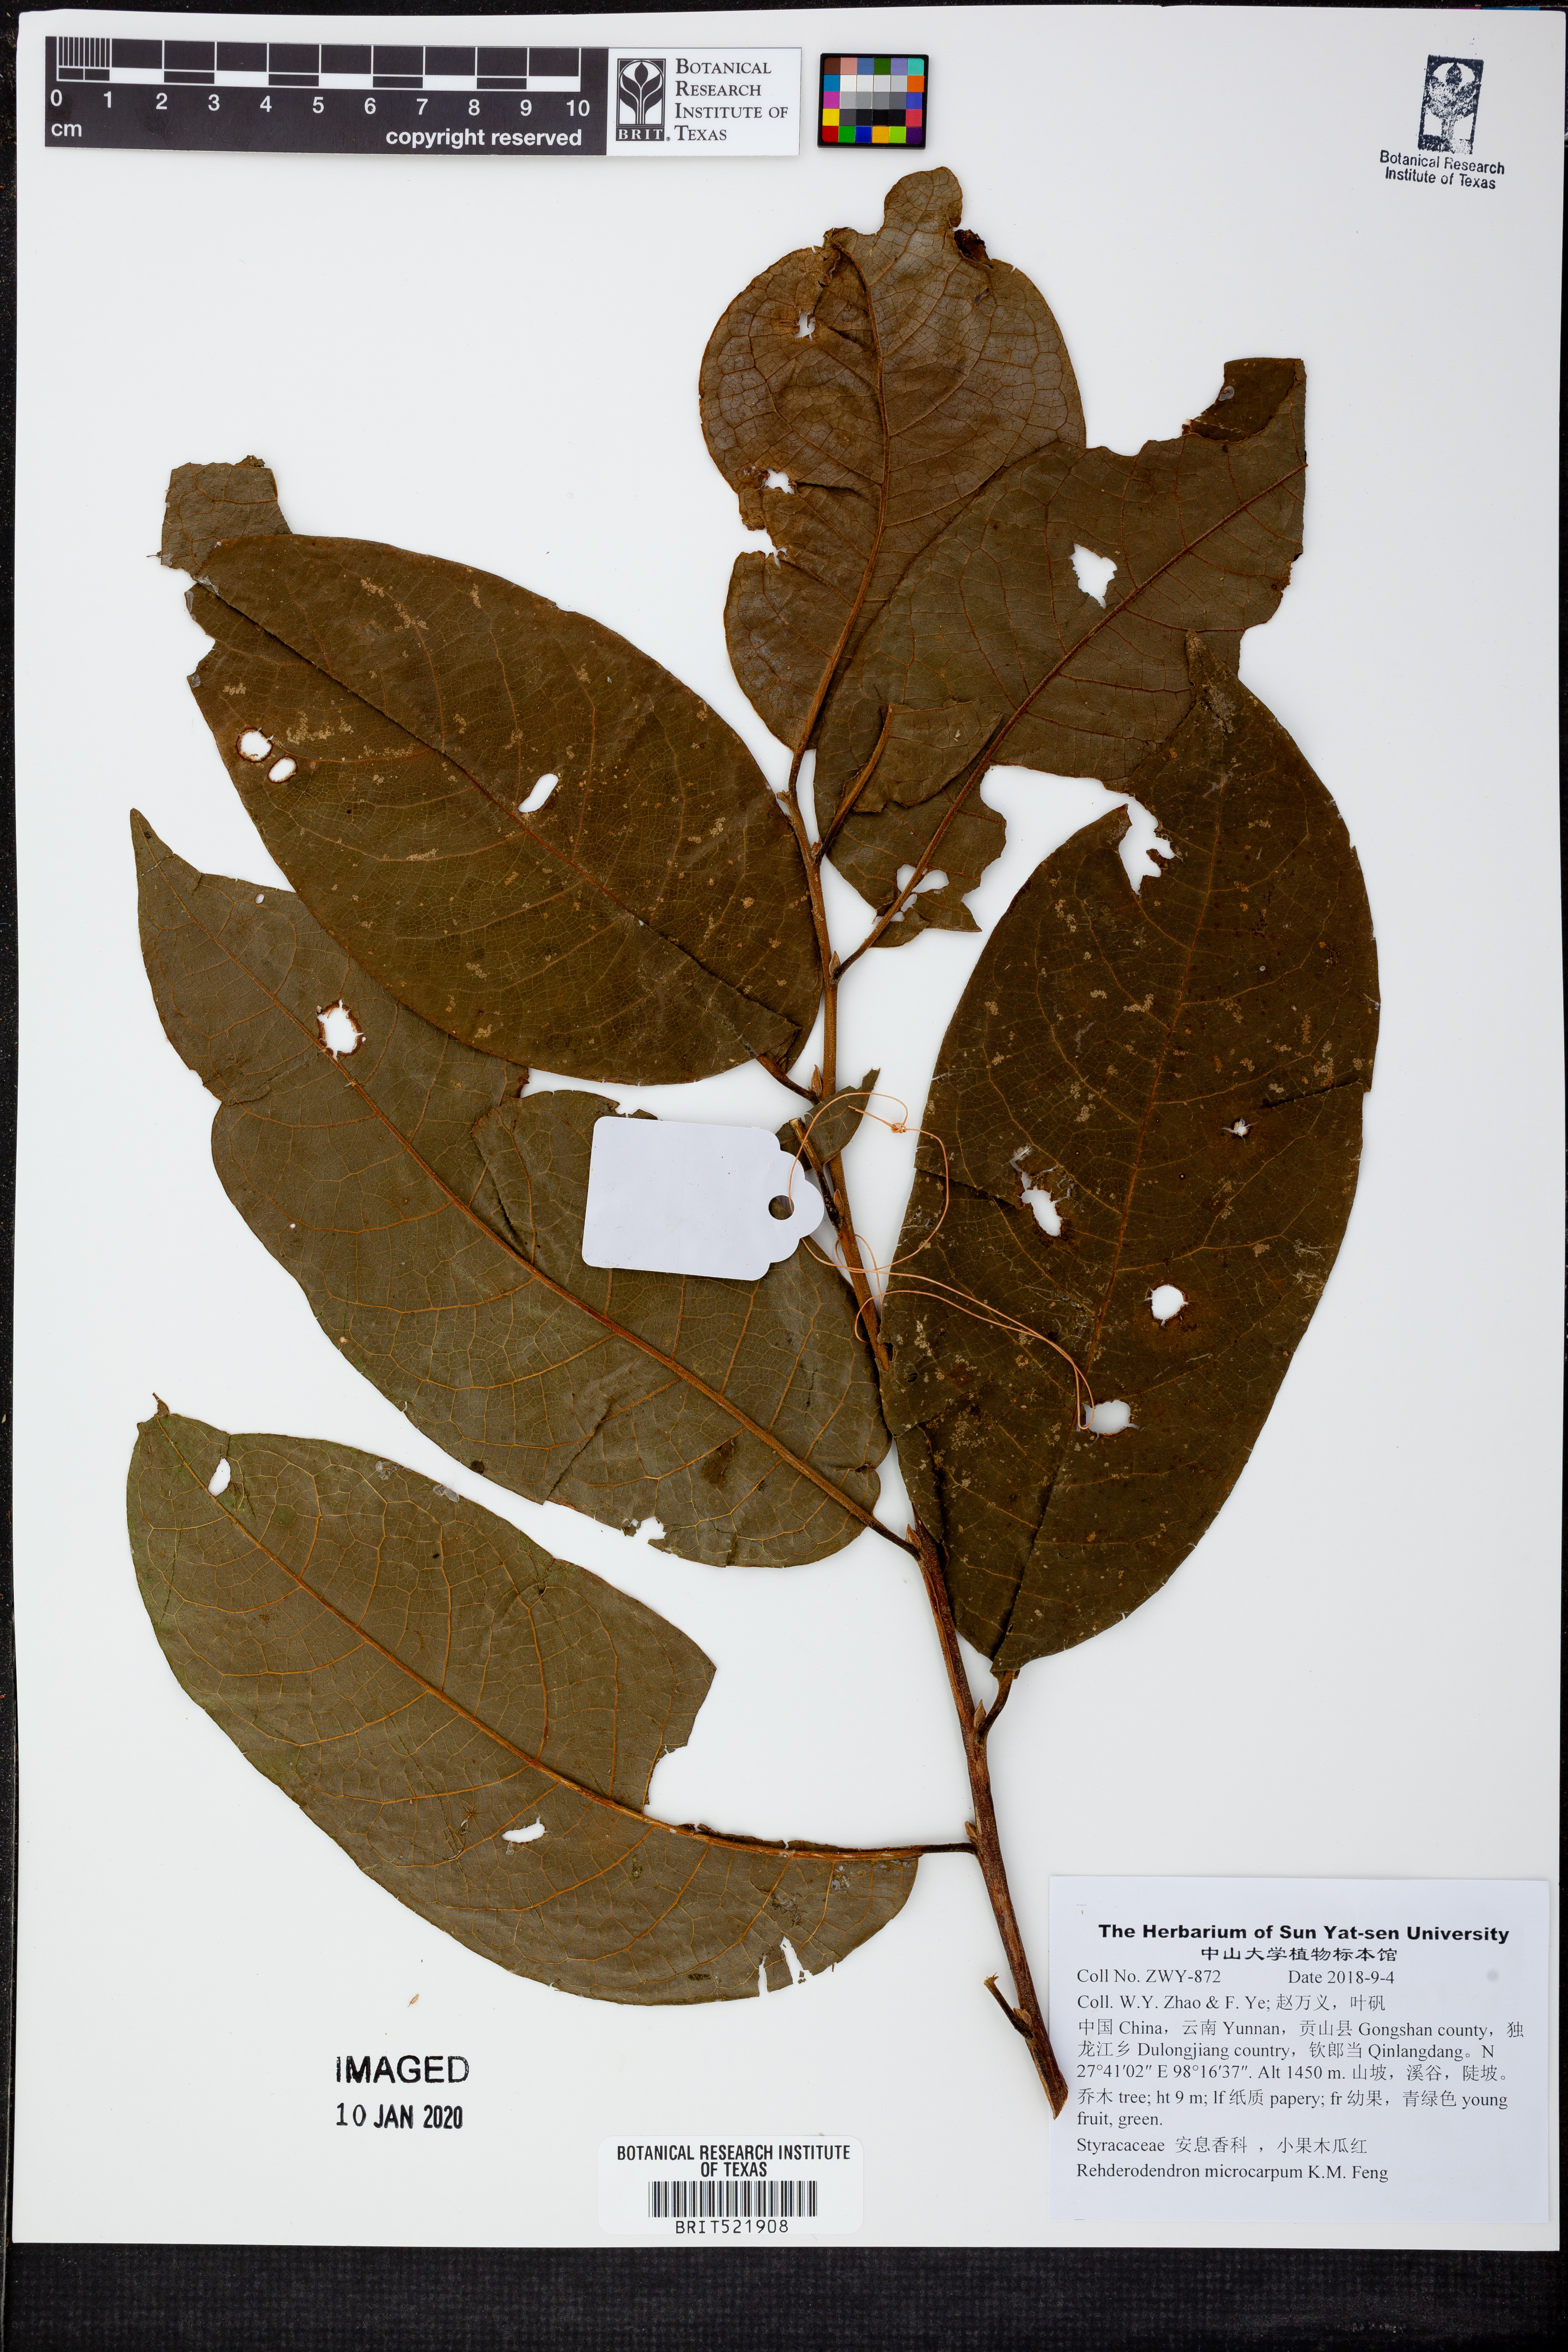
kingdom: Plantae
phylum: Tracheophyta
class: Magnoliopsida
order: Ericales
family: Styracaceae
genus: Rehderodendron
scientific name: Rehderodendron microcarpum
